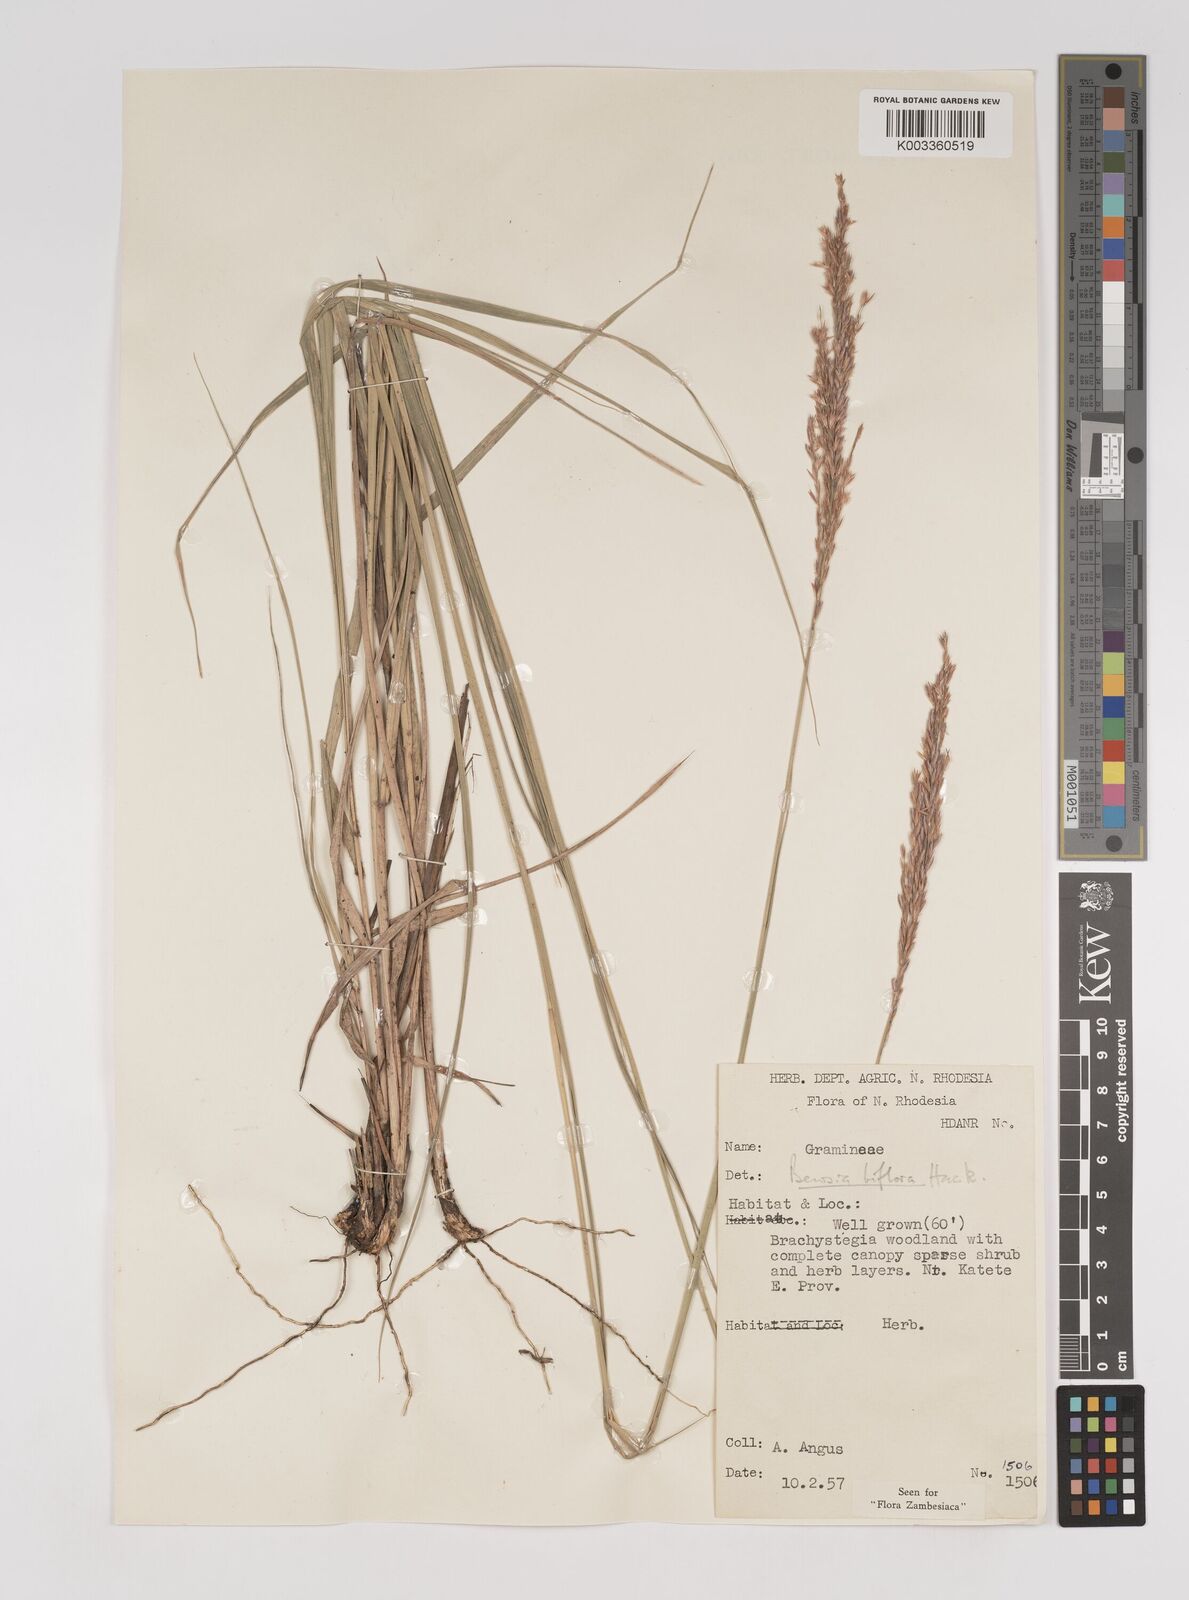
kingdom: Plantae
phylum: Tracheophyta
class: Liliopsida
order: Poales
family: Poaceae
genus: Bewsia
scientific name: Bewsia biflora
